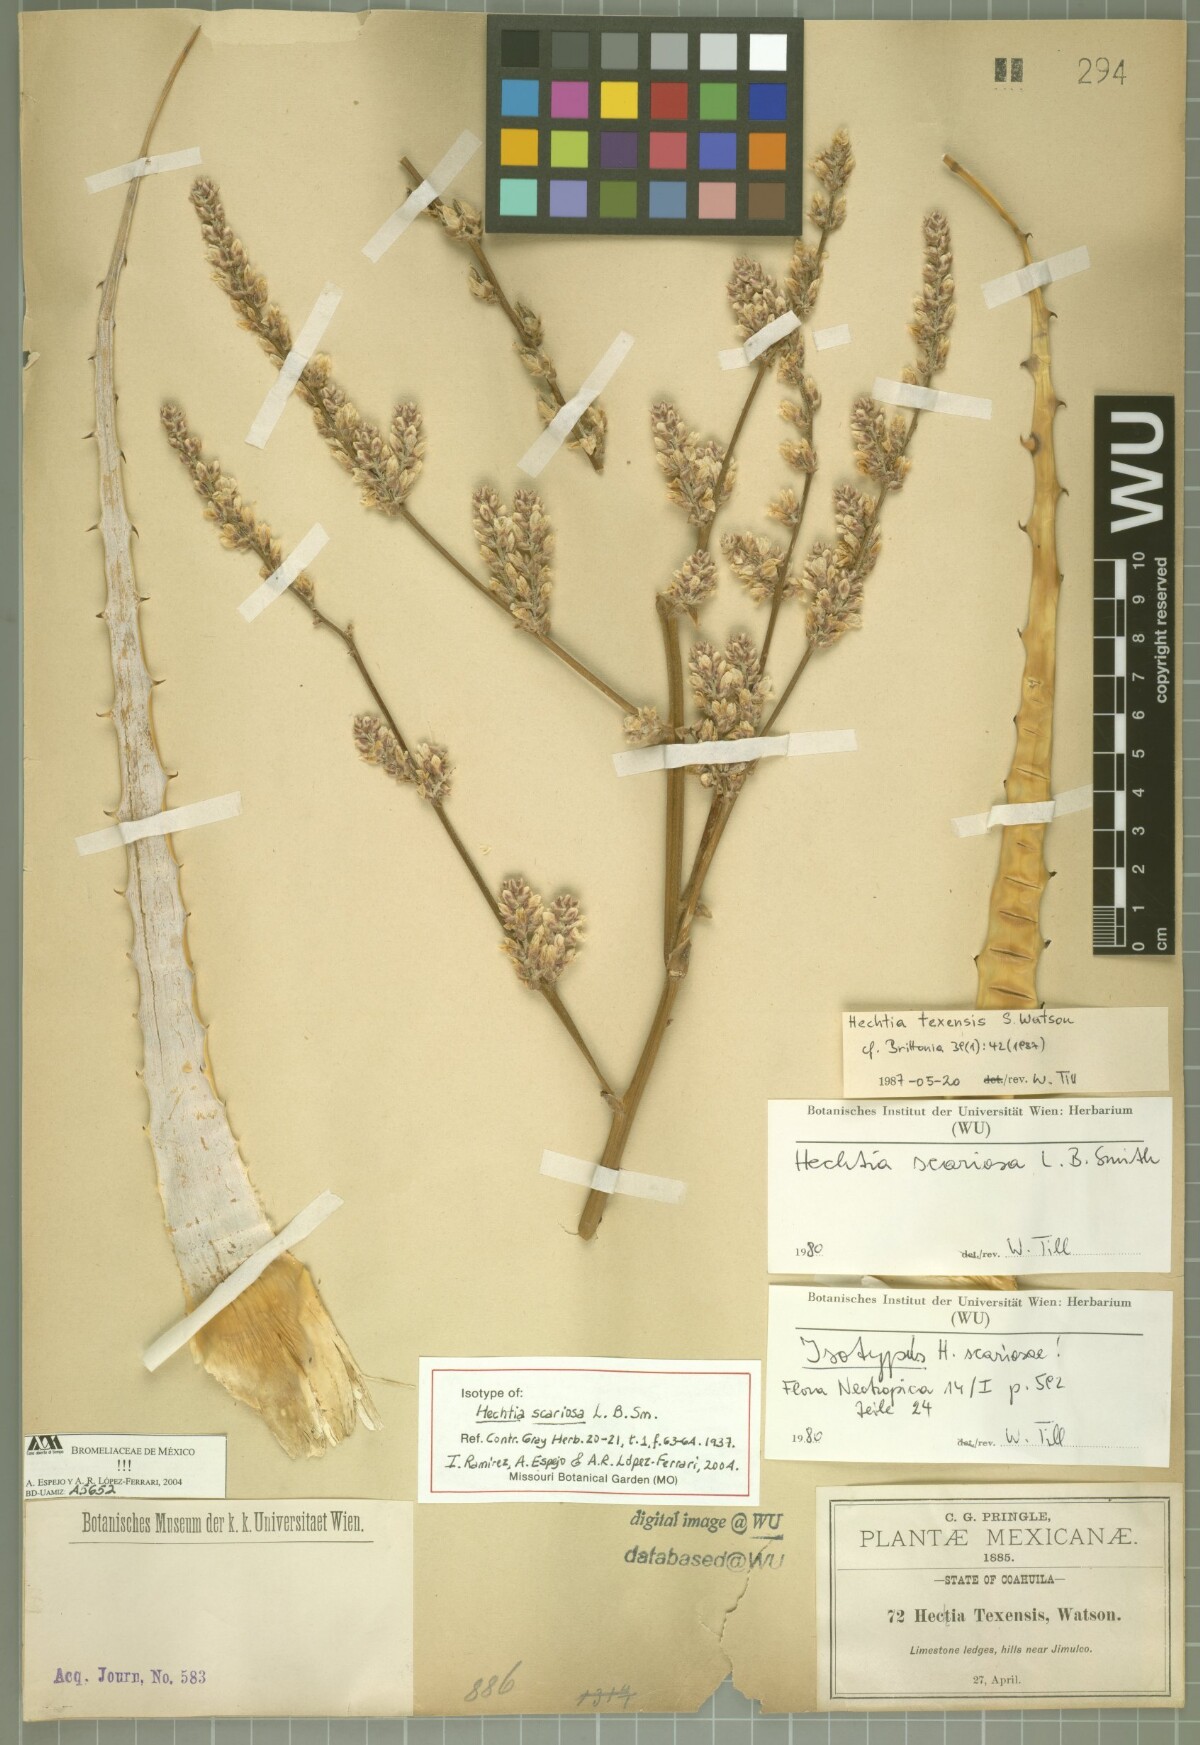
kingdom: Plantae
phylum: Tracheophyta
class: Liliopsida
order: Poales
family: Bromeliaceae
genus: Hechtia
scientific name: Hechtia texensis
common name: False agave
